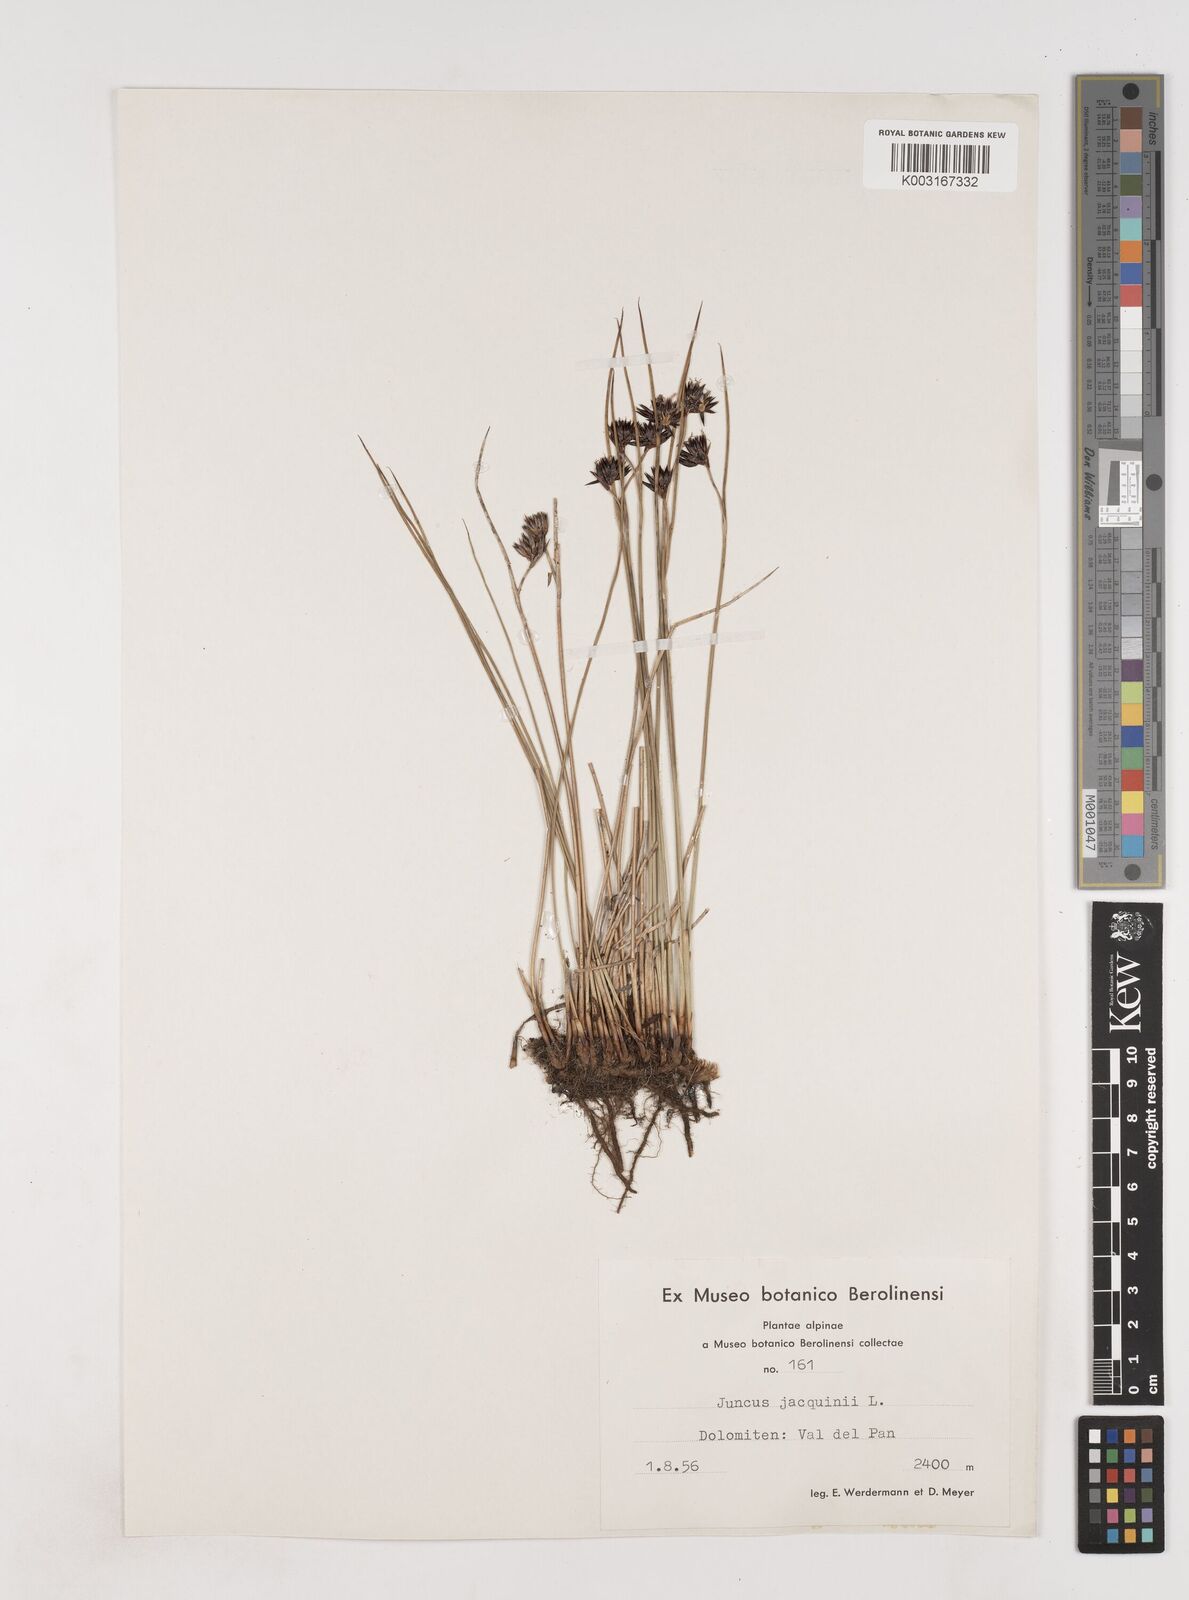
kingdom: Plantae
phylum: Tracheophyta
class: Liliopsida
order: Poales
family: Juncaceae
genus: Juncus
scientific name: Juncus jacquinii
